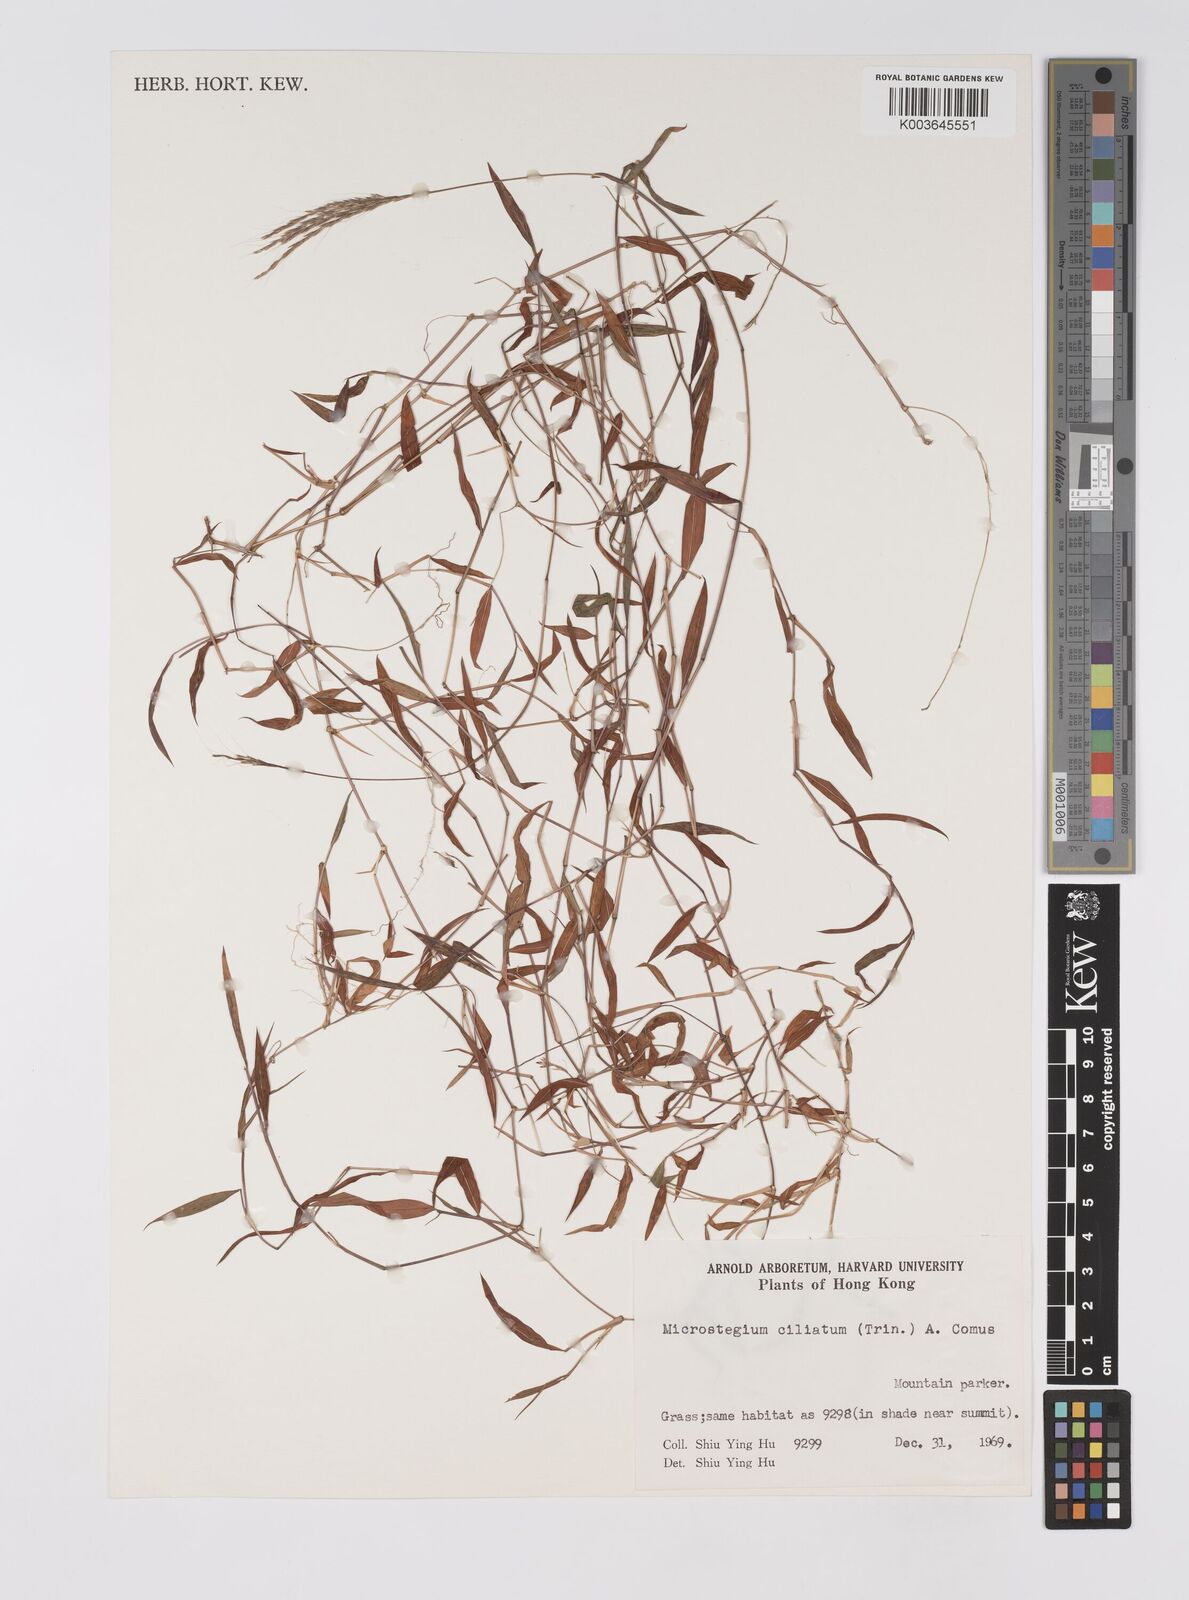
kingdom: Plantae
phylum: Tracheophyta
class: Liliopsida
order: Poales
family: Poaceae
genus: Microstegium
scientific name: Microstegium fasciculatum
